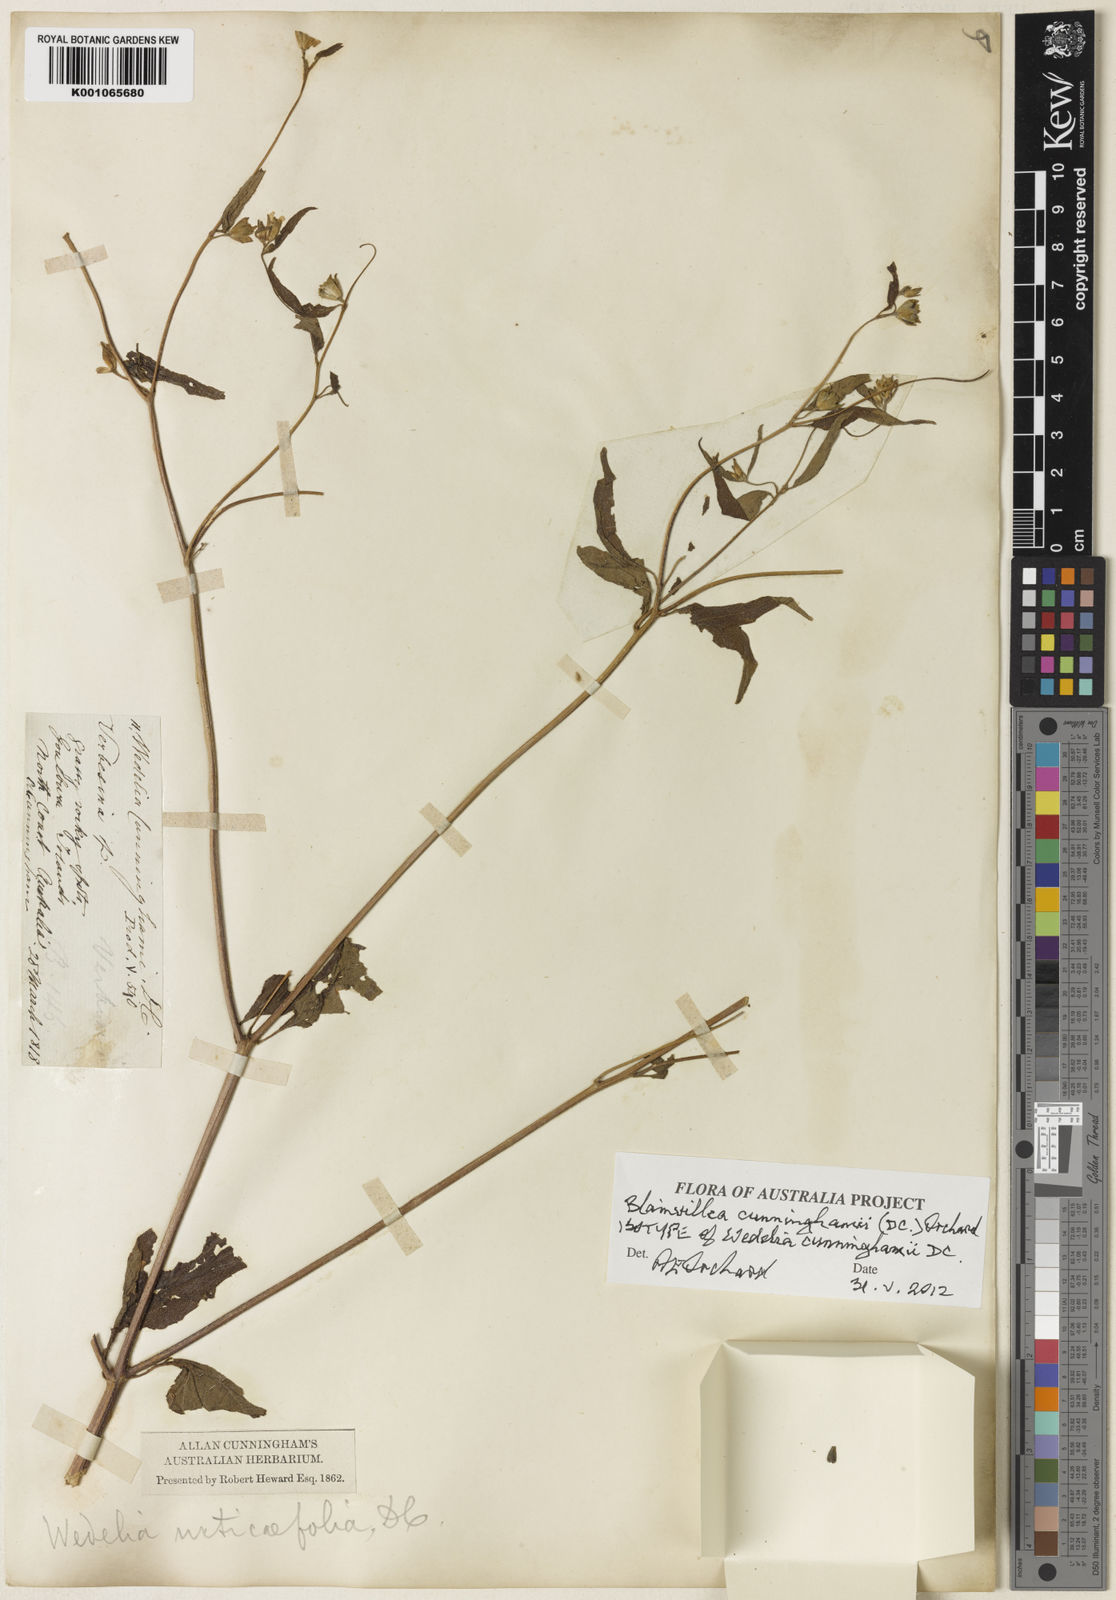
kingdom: Plantae
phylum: Tracheophyta
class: Magnoliopsida
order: Asterales
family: Asteraceae
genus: Blainvillea
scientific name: Blainvillea cunninghamii
